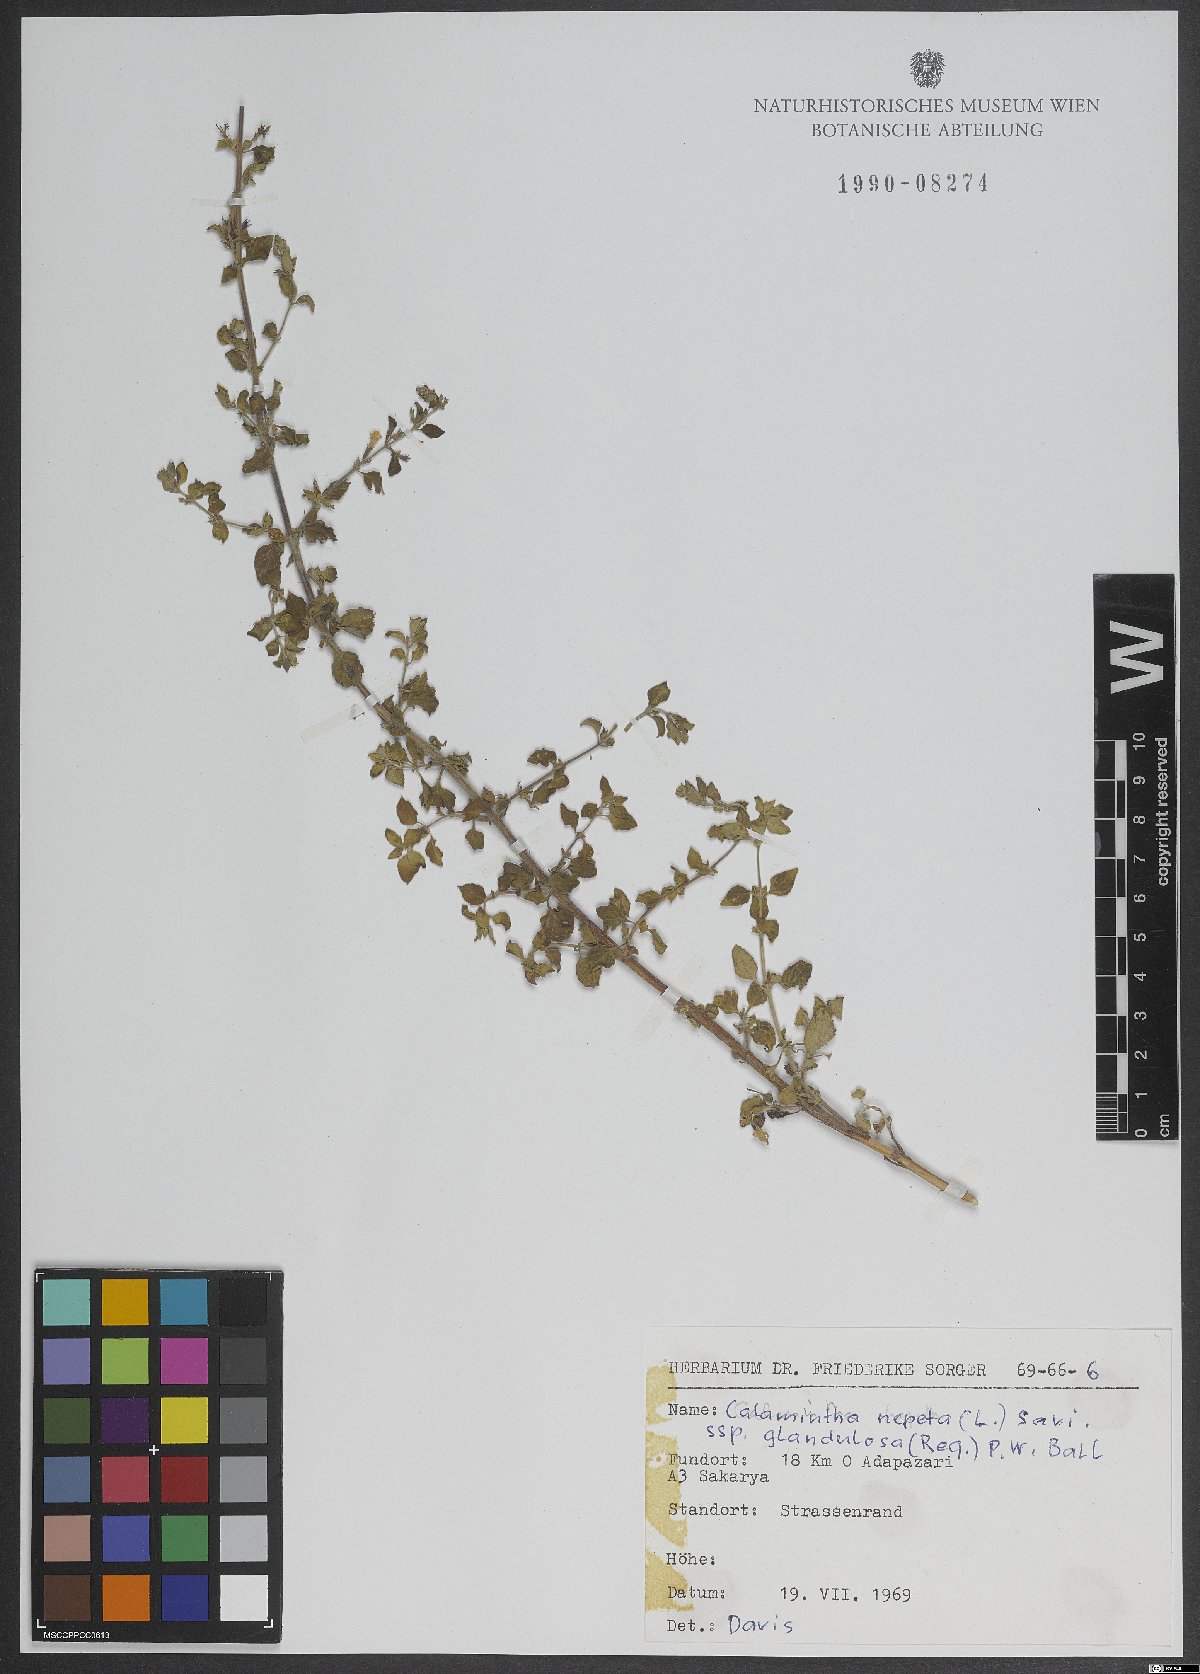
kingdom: Plantae
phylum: Tracheophyta
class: Magnoliopsida
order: Lamiales
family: Lamiaceae
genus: Clinopodium
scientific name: Clinopodium nepeta
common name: Lesser calamint
